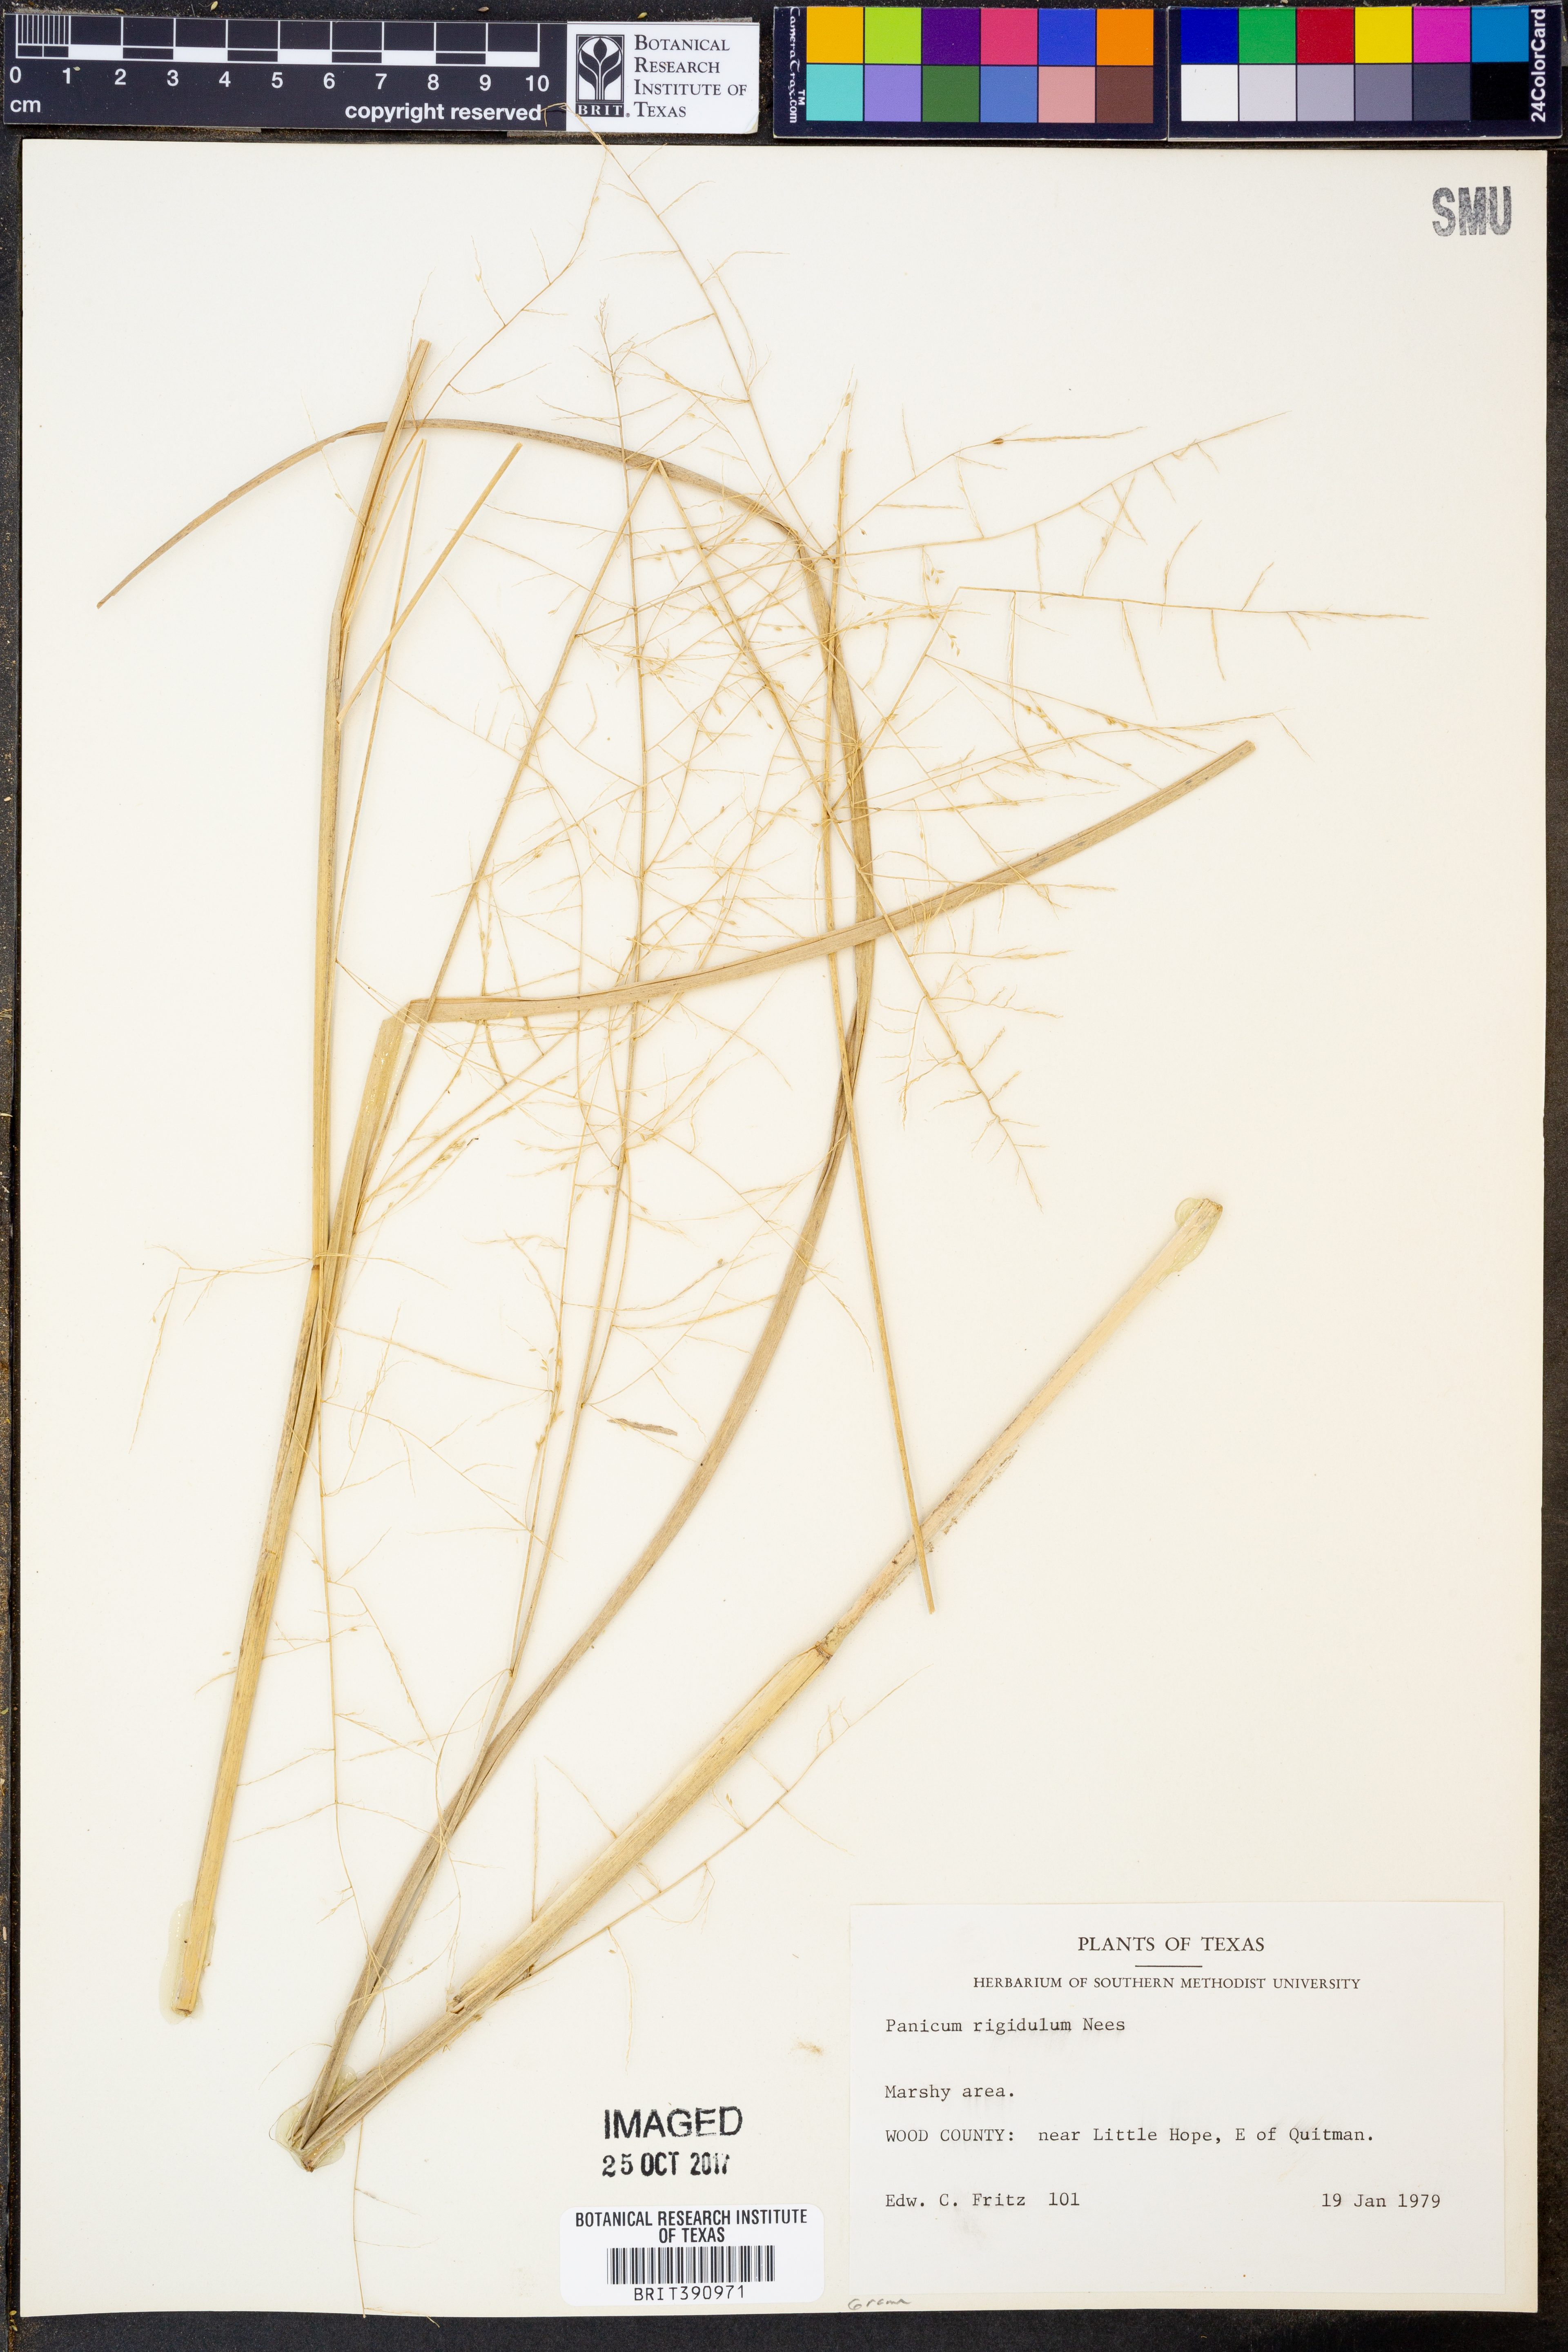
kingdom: Plantae
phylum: Tracheophyta
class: Liliopsida
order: Poales
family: Poaceae
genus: Coleataenia
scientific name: Coleataenia rigidula
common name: Redtop panicgrass
